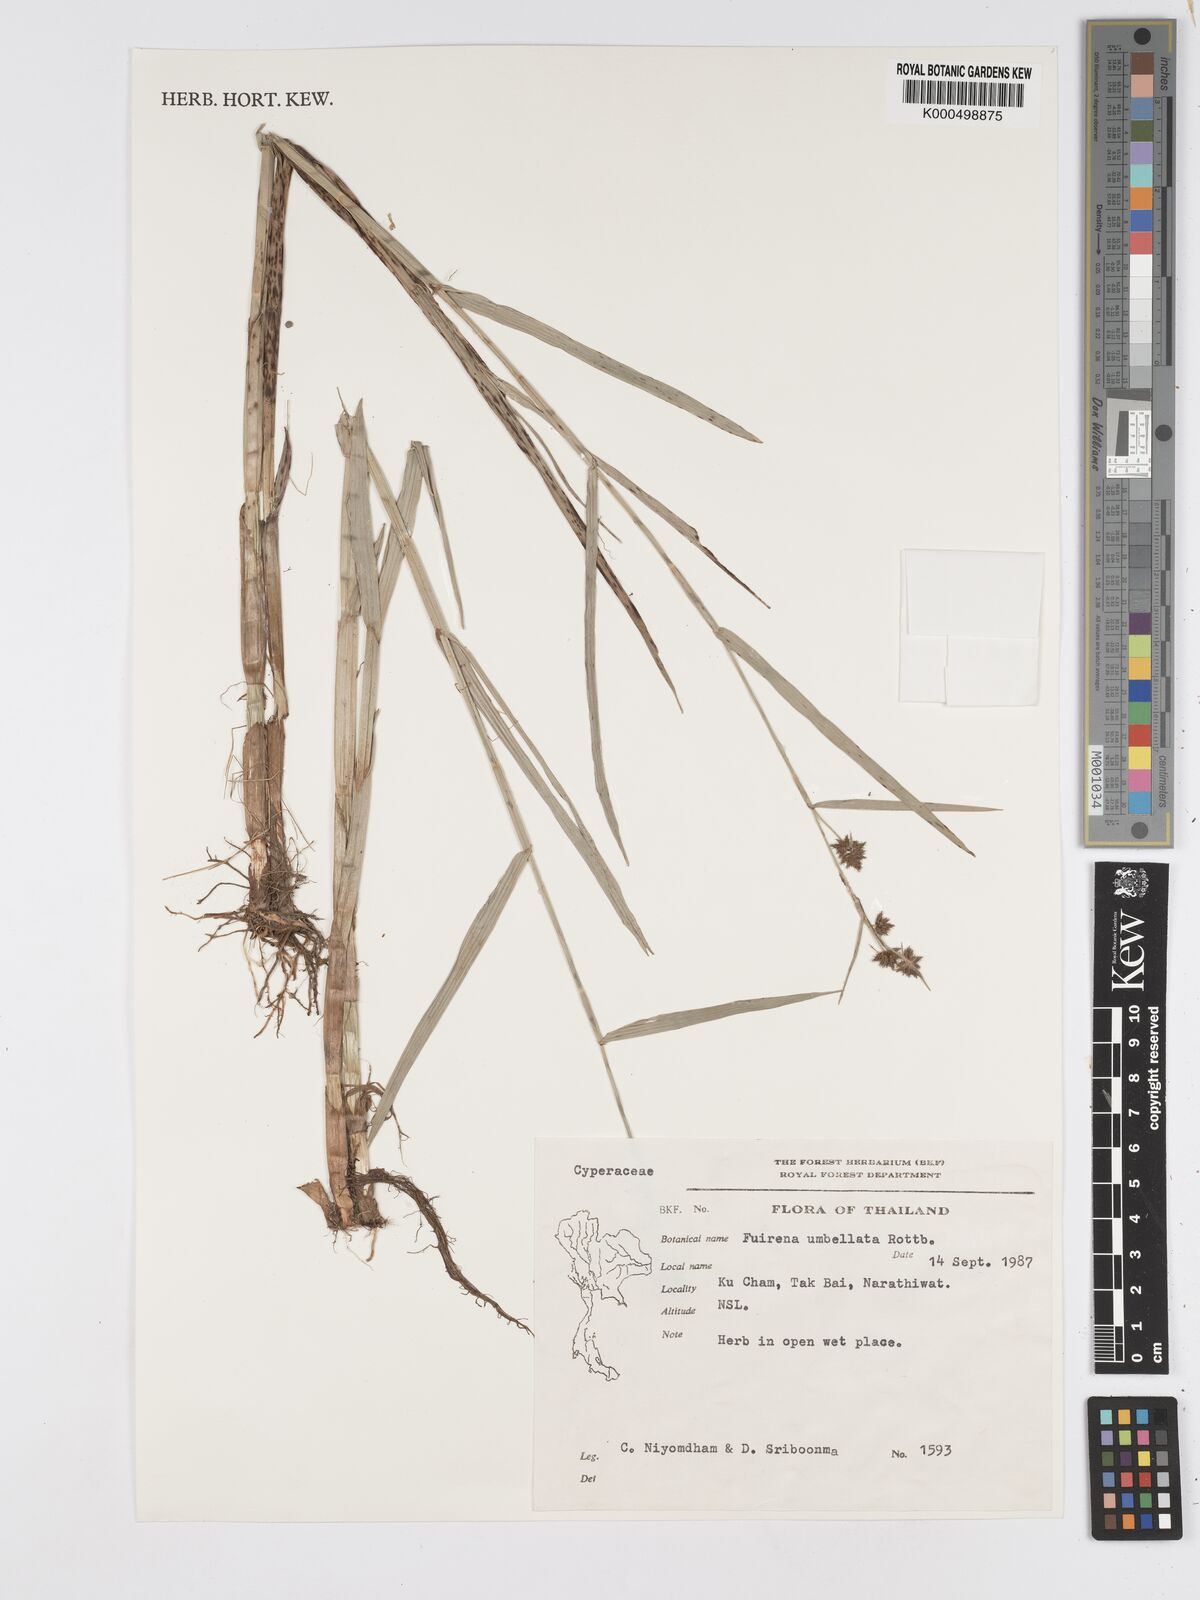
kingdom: Plantae
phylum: Tracheophyta
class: Liliopsida
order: Poales
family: Cyperaceae
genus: Fuirena
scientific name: Fuirena umbellata
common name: Yefen
